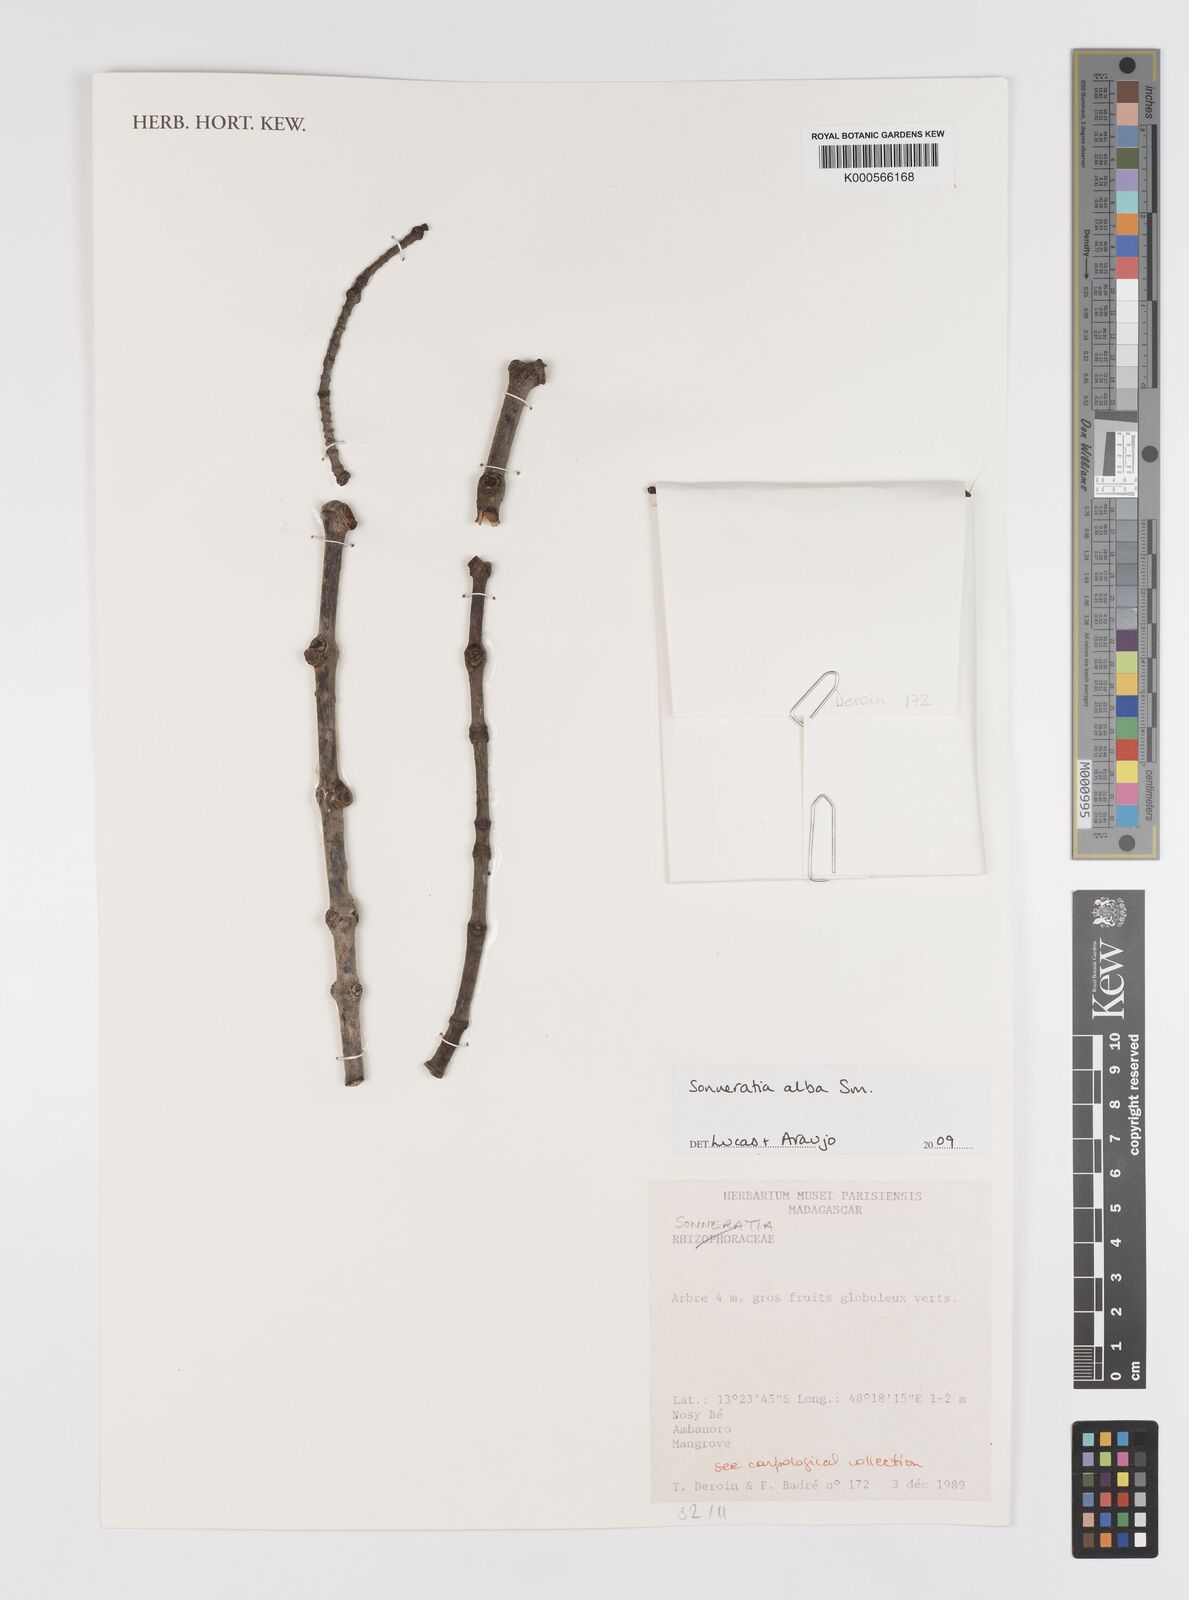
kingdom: Plantae
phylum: Tracheophyta
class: Magnoliopsida
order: Myrtales
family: Lythraceae
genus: Sonneratia
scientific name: Sonneratia alba
